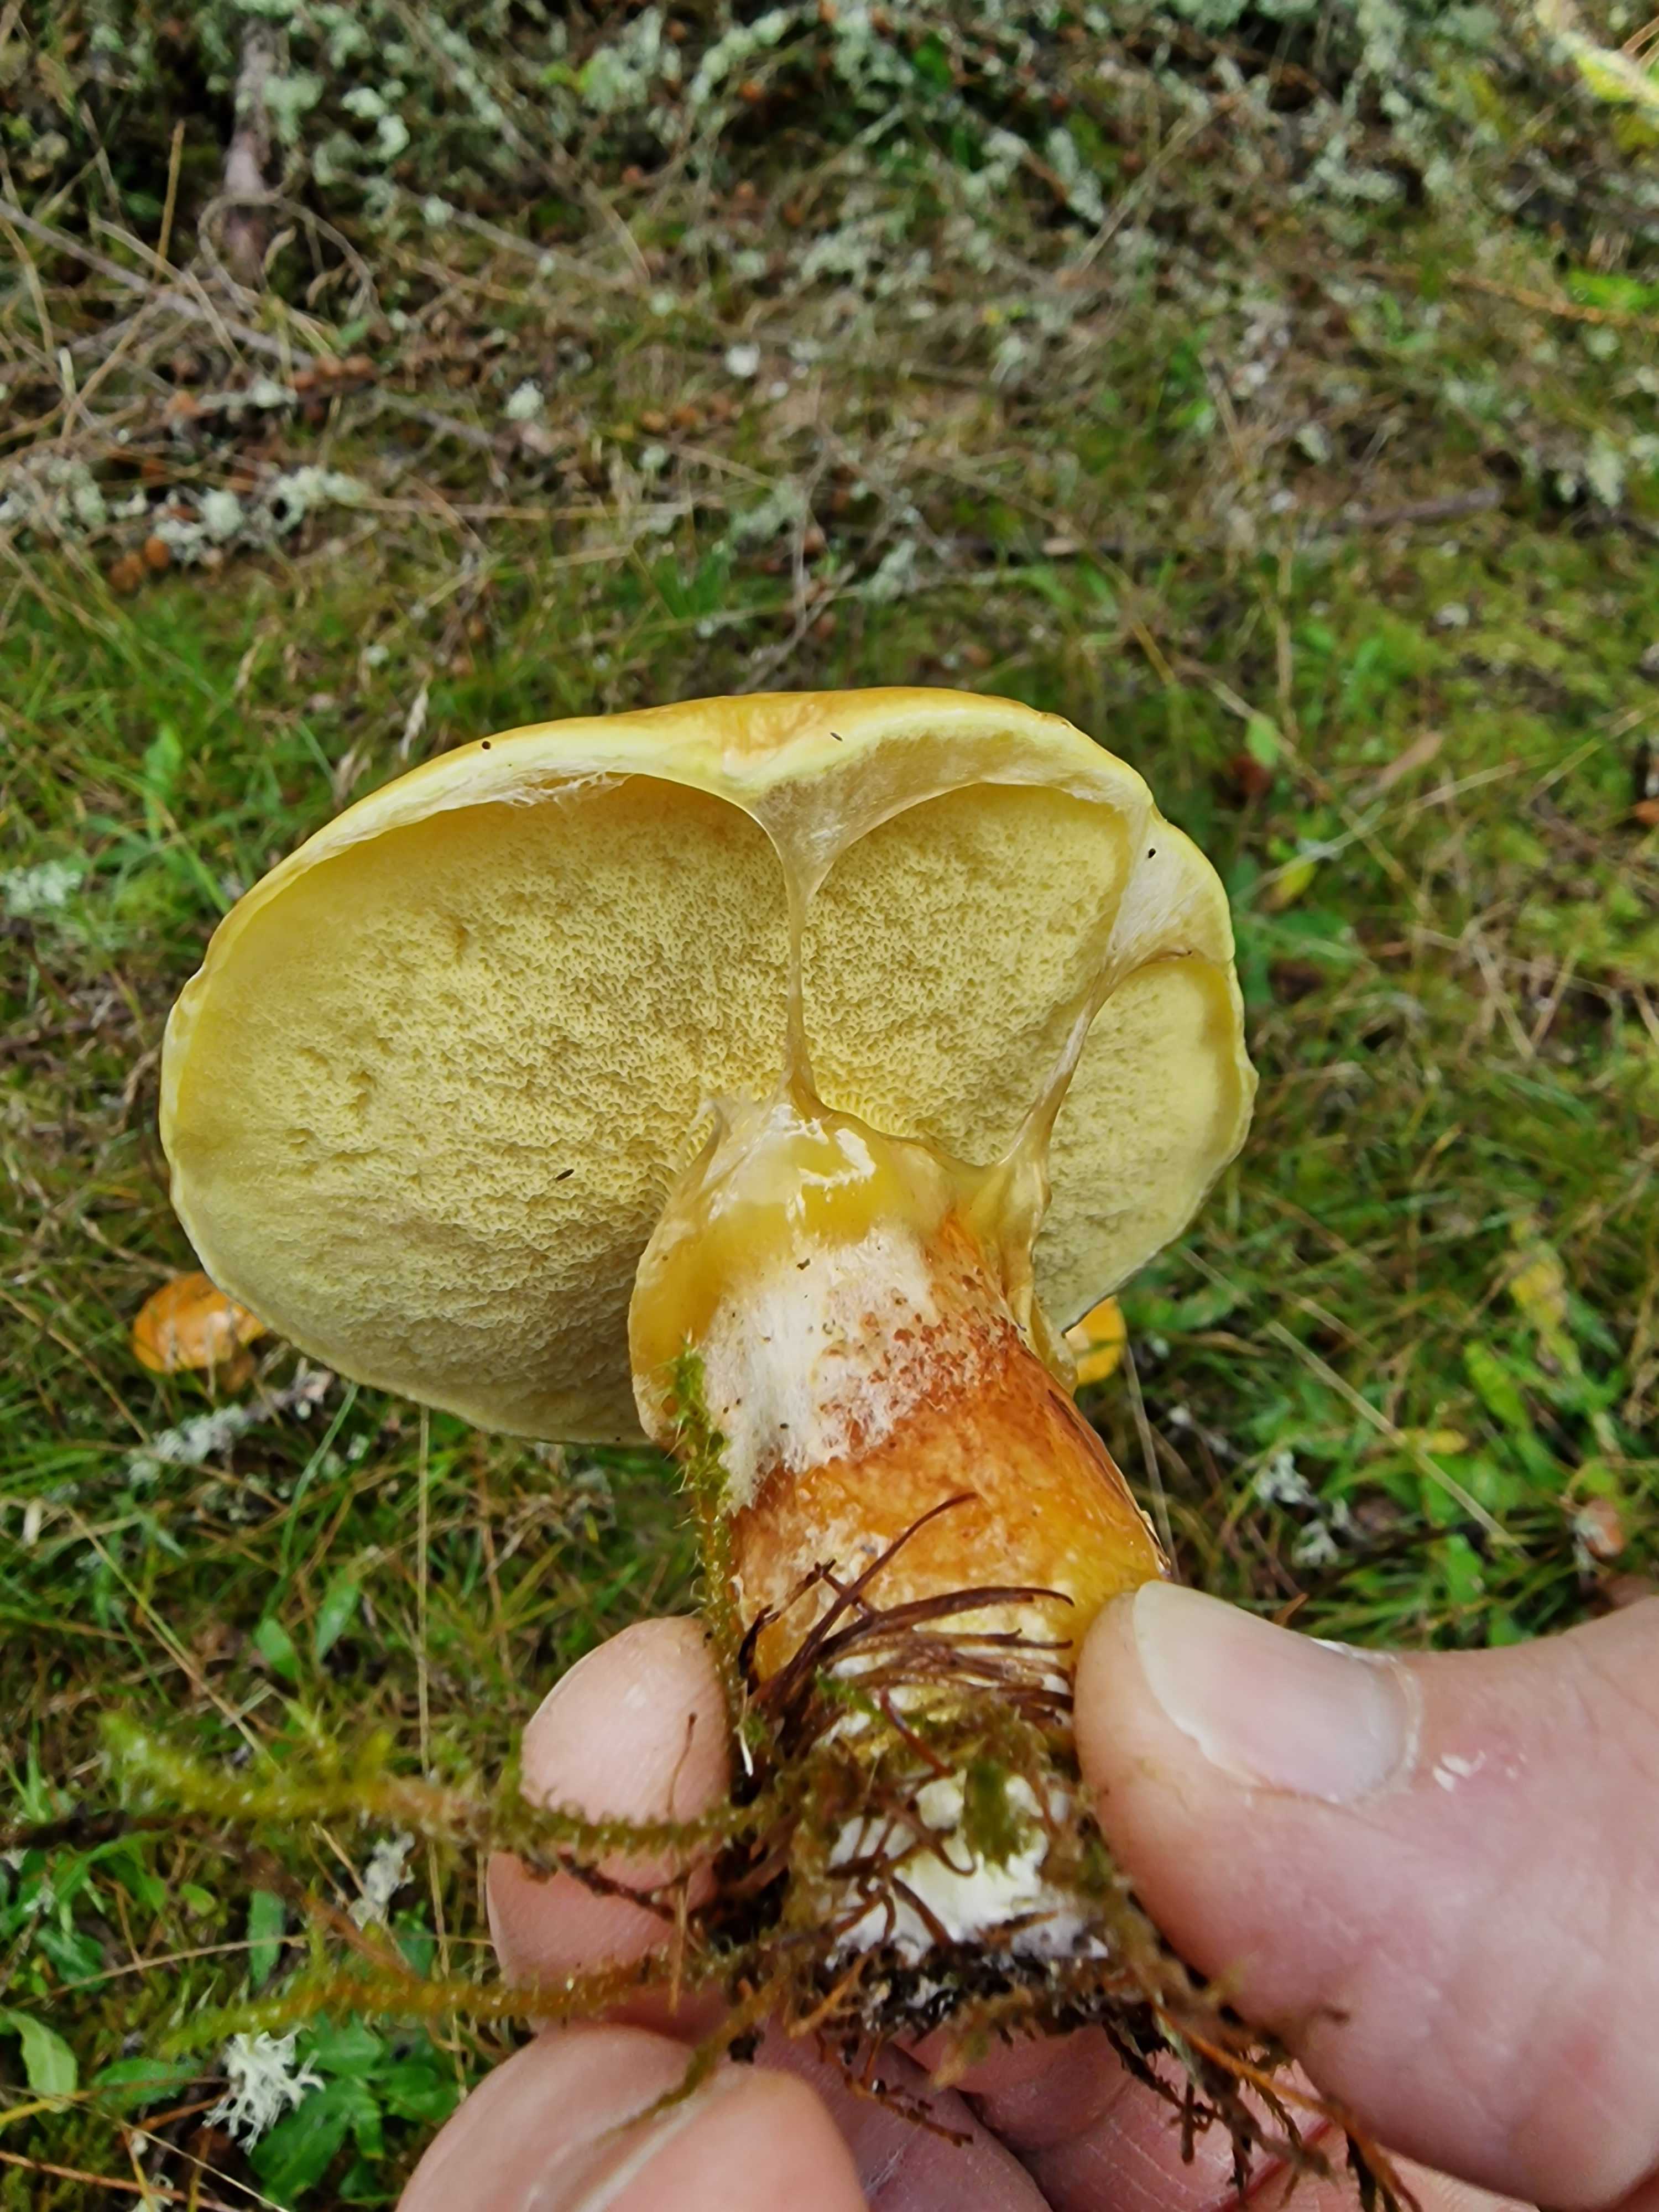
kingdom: Fungi
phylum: Basidiomycota
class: Agaricomycetes
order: Boletales
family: Suillaceae
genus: Suillus
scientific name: Suillus grevillei
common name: lærke-slimrørhat
